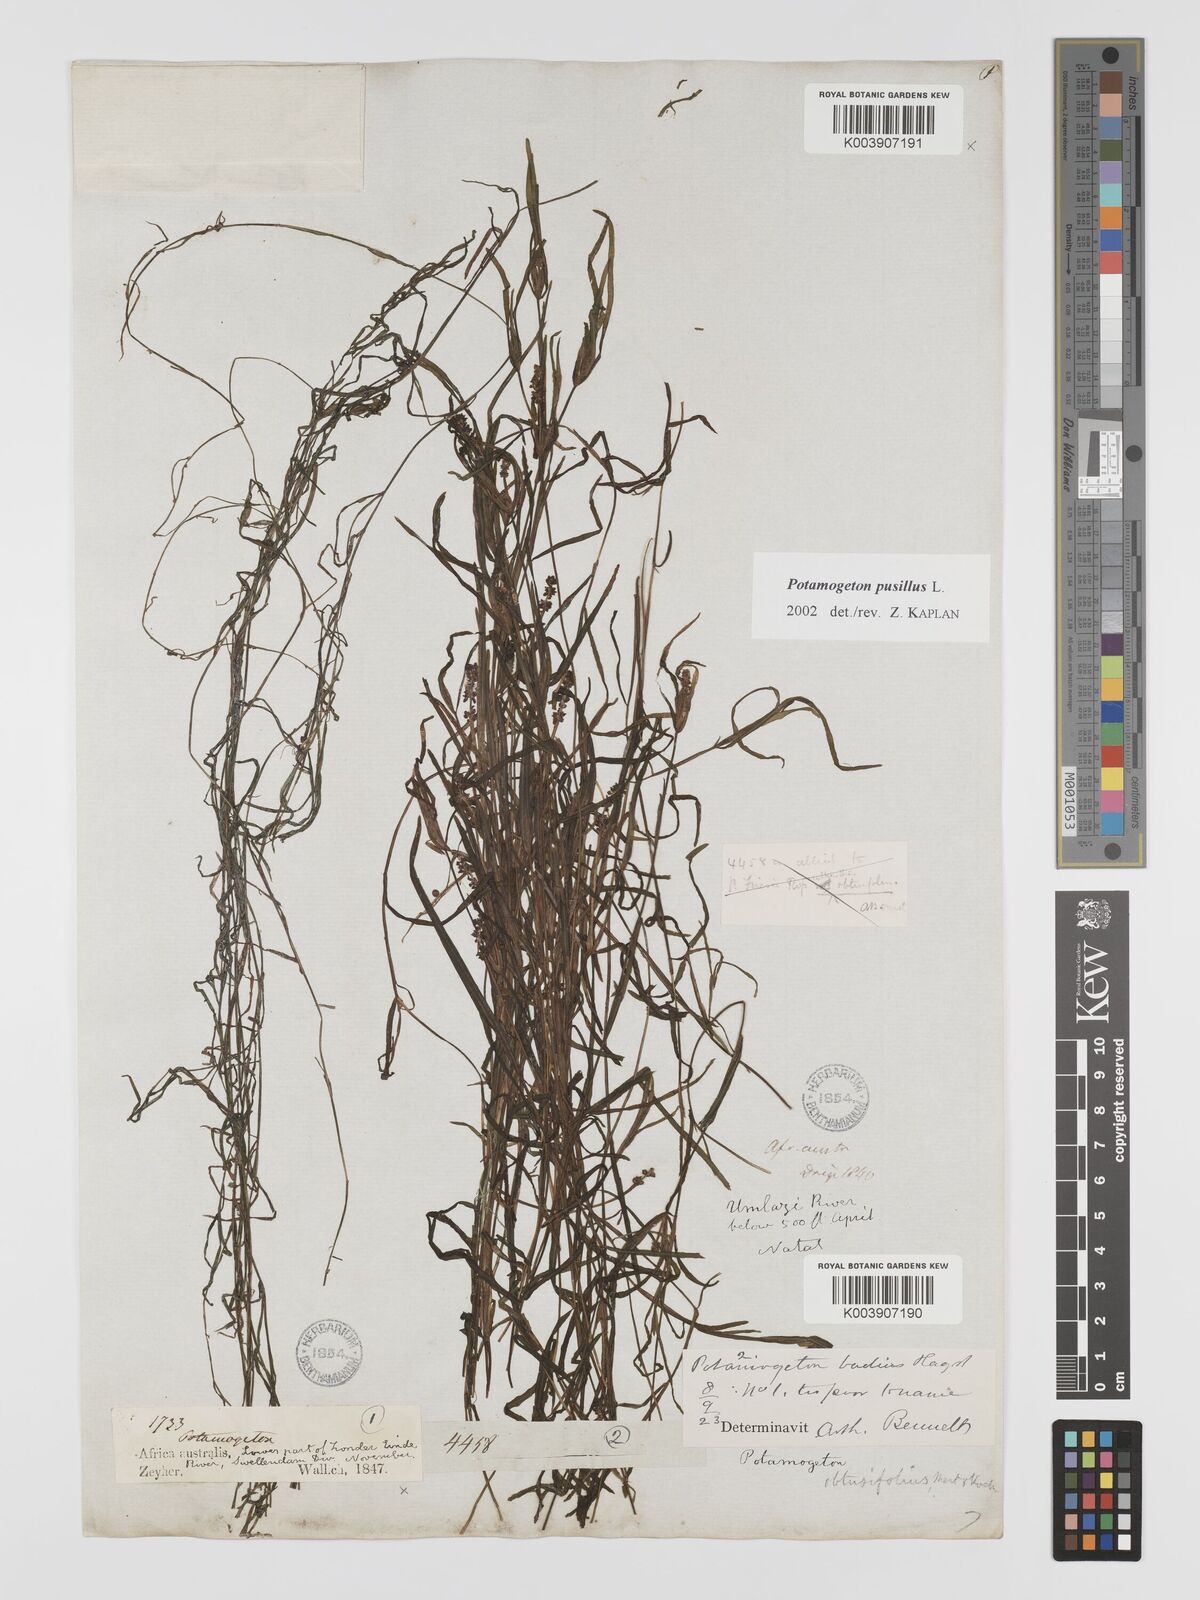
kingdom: Plantae
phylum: Tracheophyta
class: Liliopsida
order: Alismatales
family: Potamogetonaceae
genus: Potamogeton
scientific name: Potamogeton pusillus
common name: Lesser pondweed
